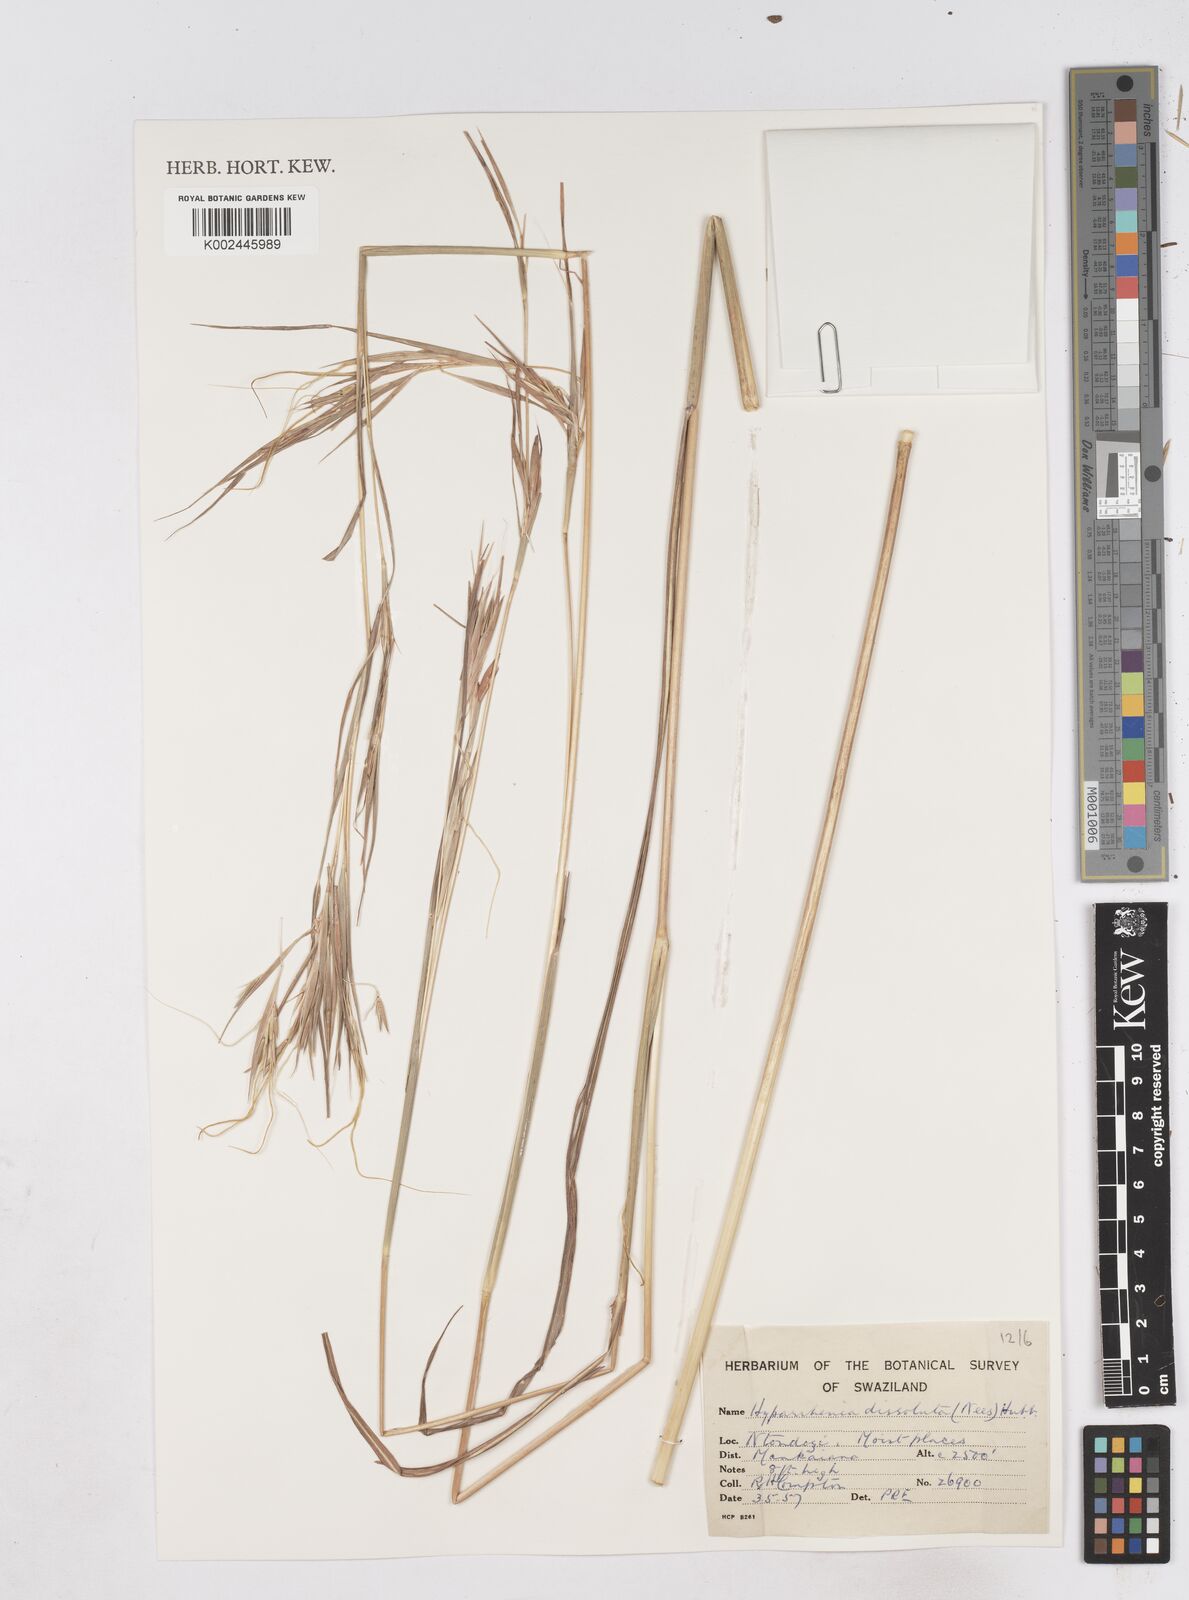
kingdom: Plantae
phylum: Tracheophyta
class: Liliopsida
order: Poales
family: Poaceae
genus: Hyperthelia
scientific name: Hyperthelia dissoluta
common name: Yellow thatching grass
